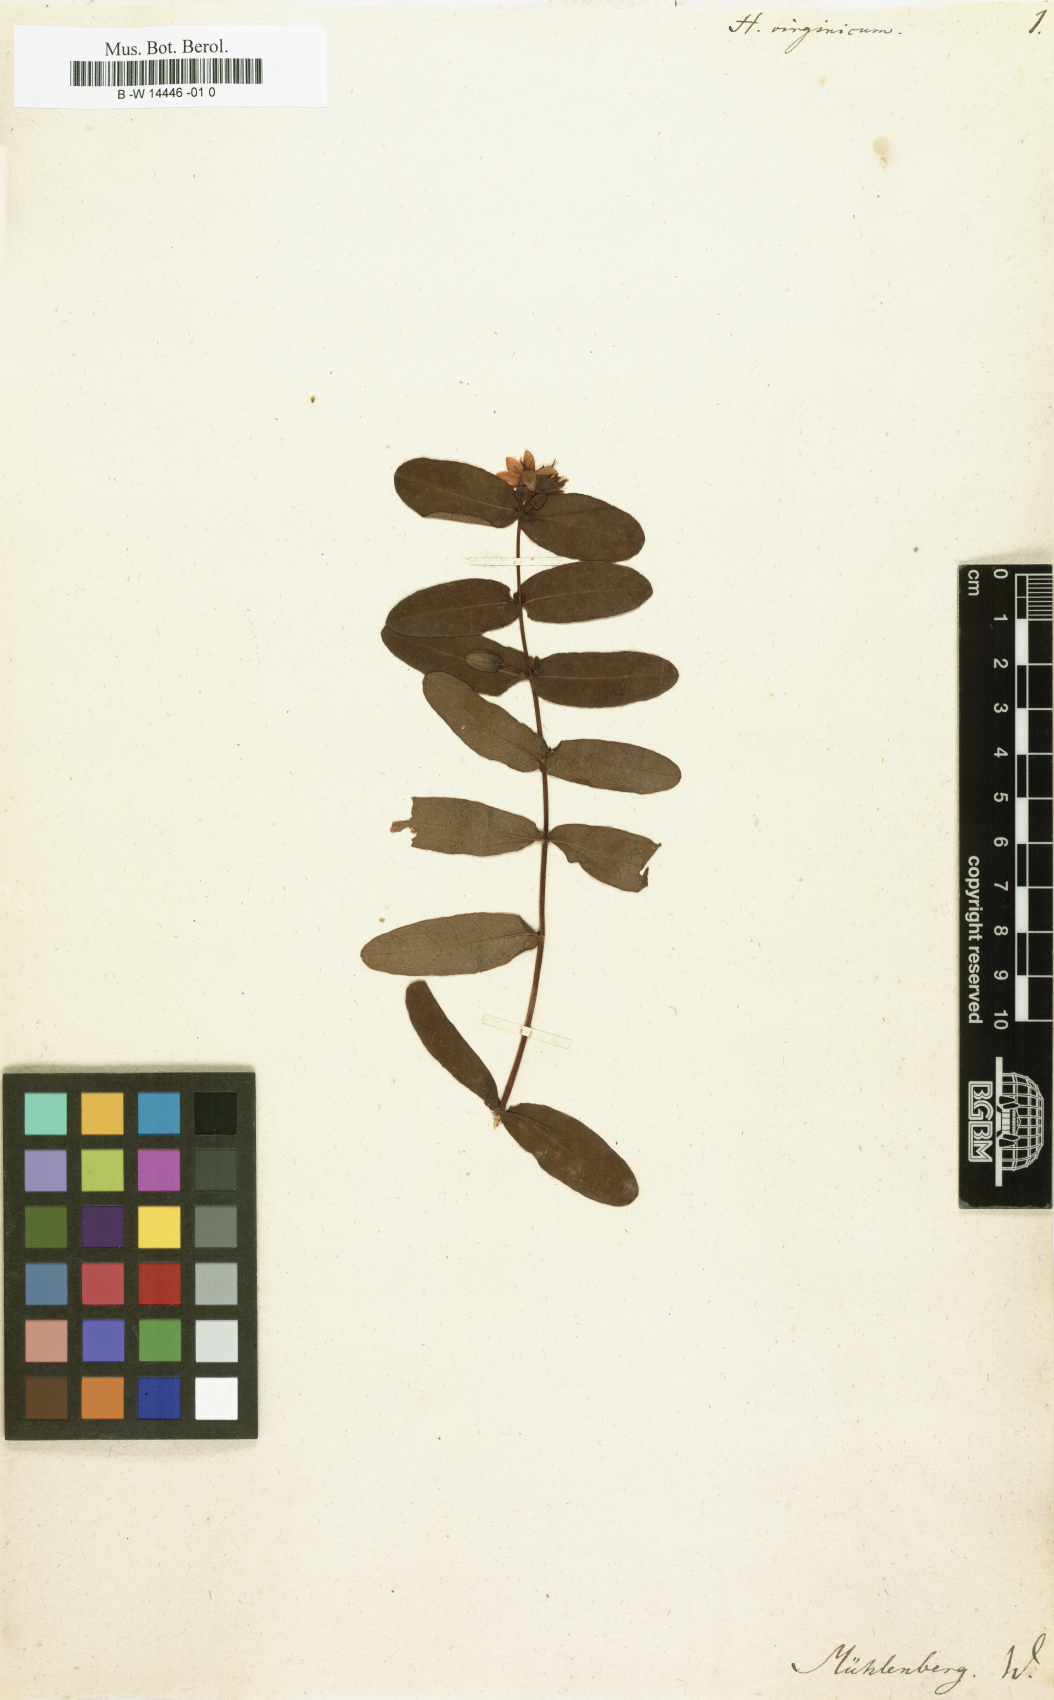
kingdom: Plantae
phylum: Tracheophyta
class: Magnoliopsida
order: Malpighiales
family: Hypericaceae
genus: Triadenum
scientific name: Triadenum virginicum
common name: Marsh st. john's-wort
